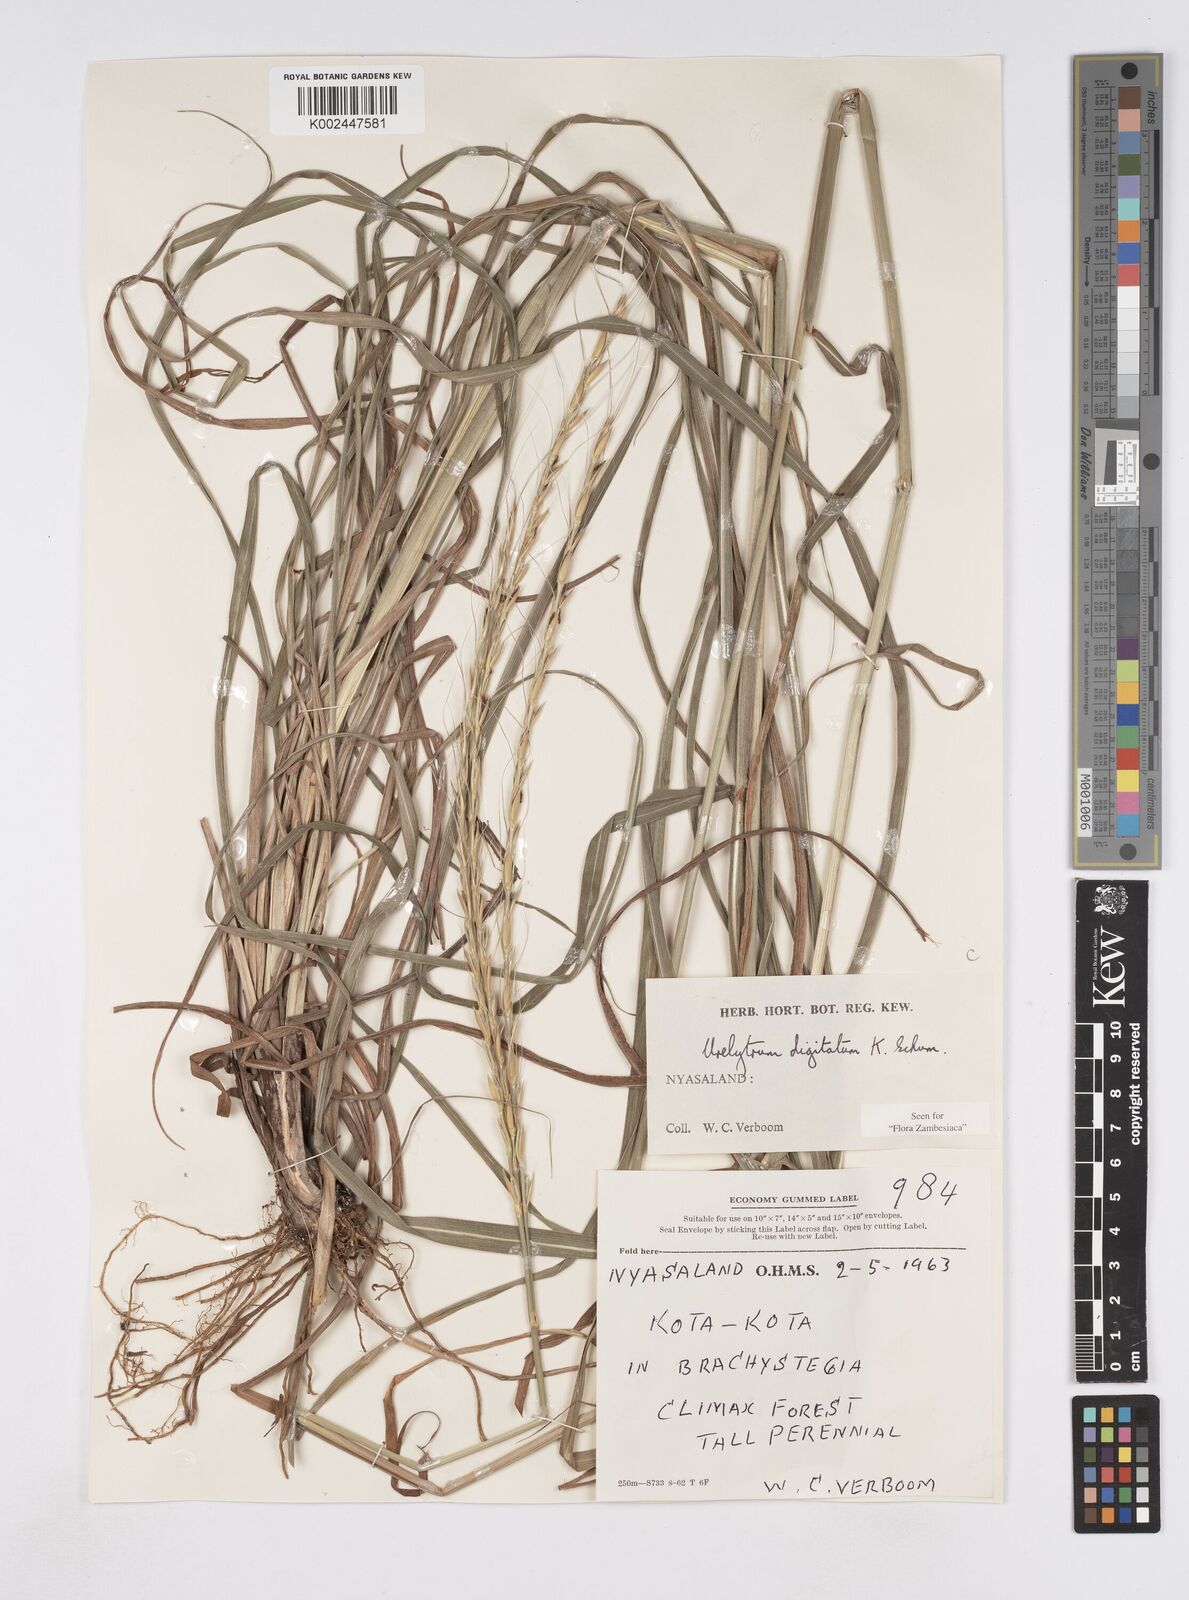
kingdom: Plantae
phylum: Tracheophyta
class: Liliopsida
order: Poales
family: Poaceae
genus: Urelytrum
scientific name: Urelytrum digitatum
